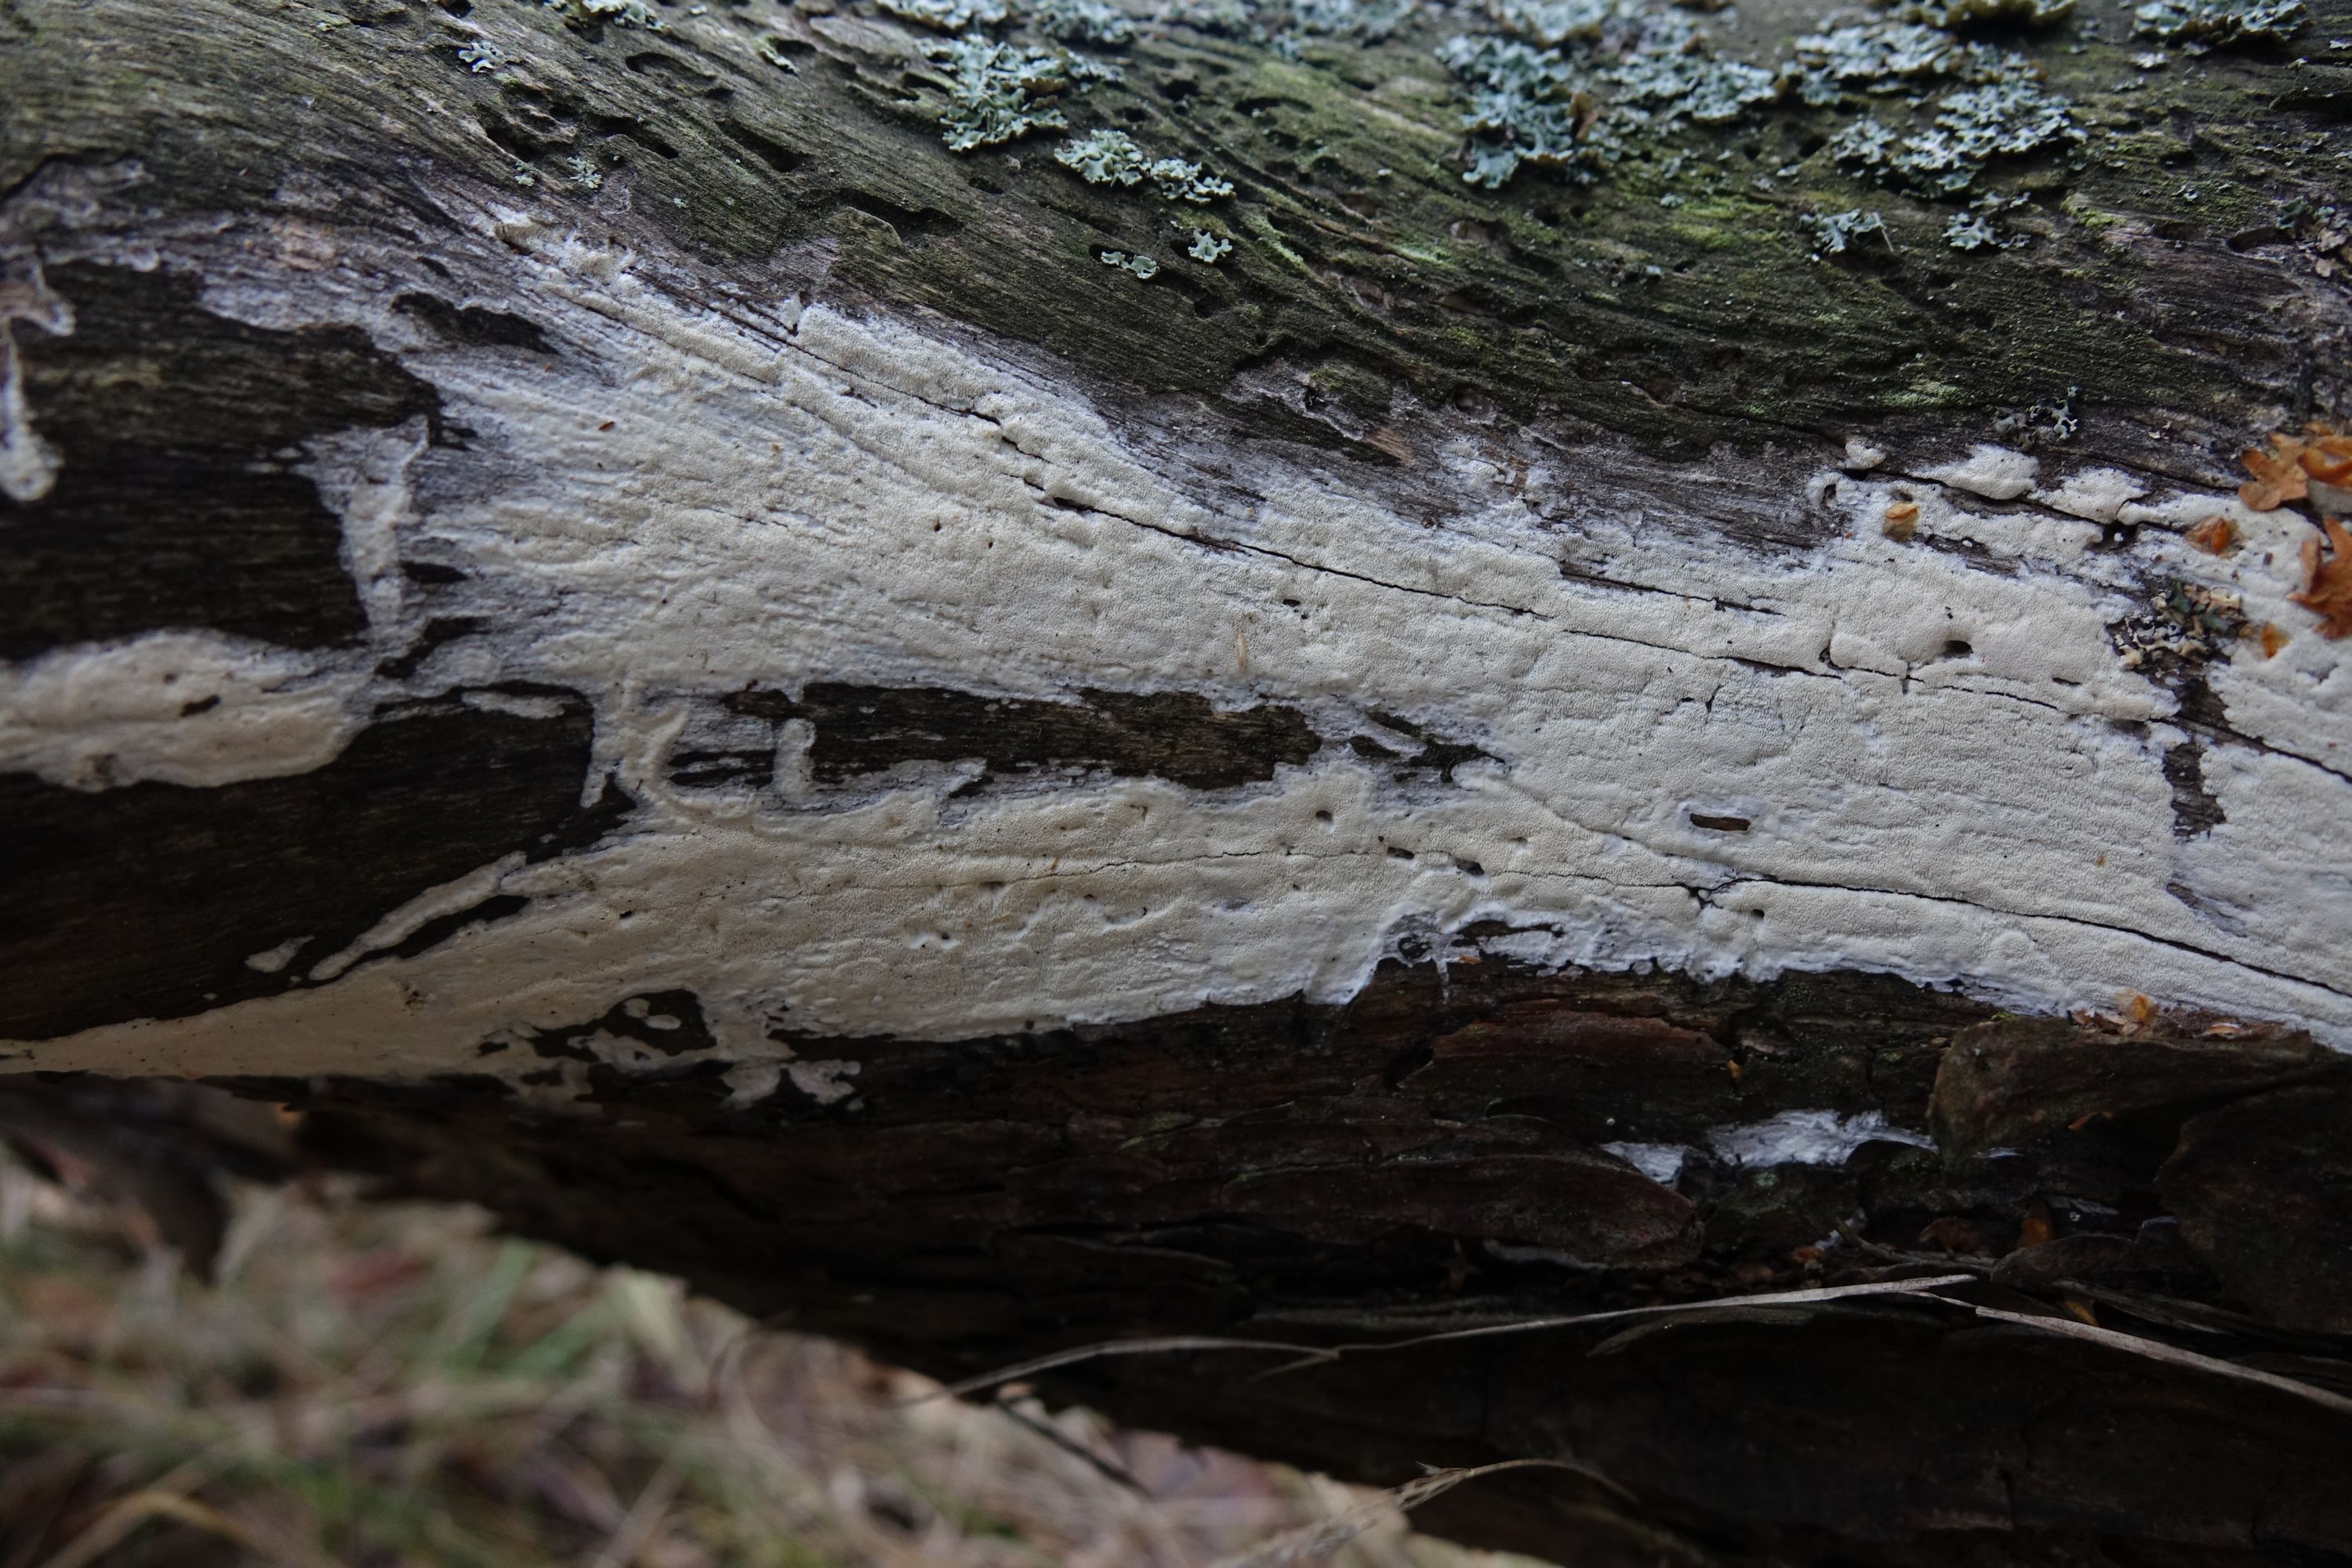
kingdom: Fungi
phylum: Basidiomycota
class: Agaricomycetes
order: Polyporales
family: Fomitopsidaceae
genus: Daedalea
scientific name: Daedalea xantha
